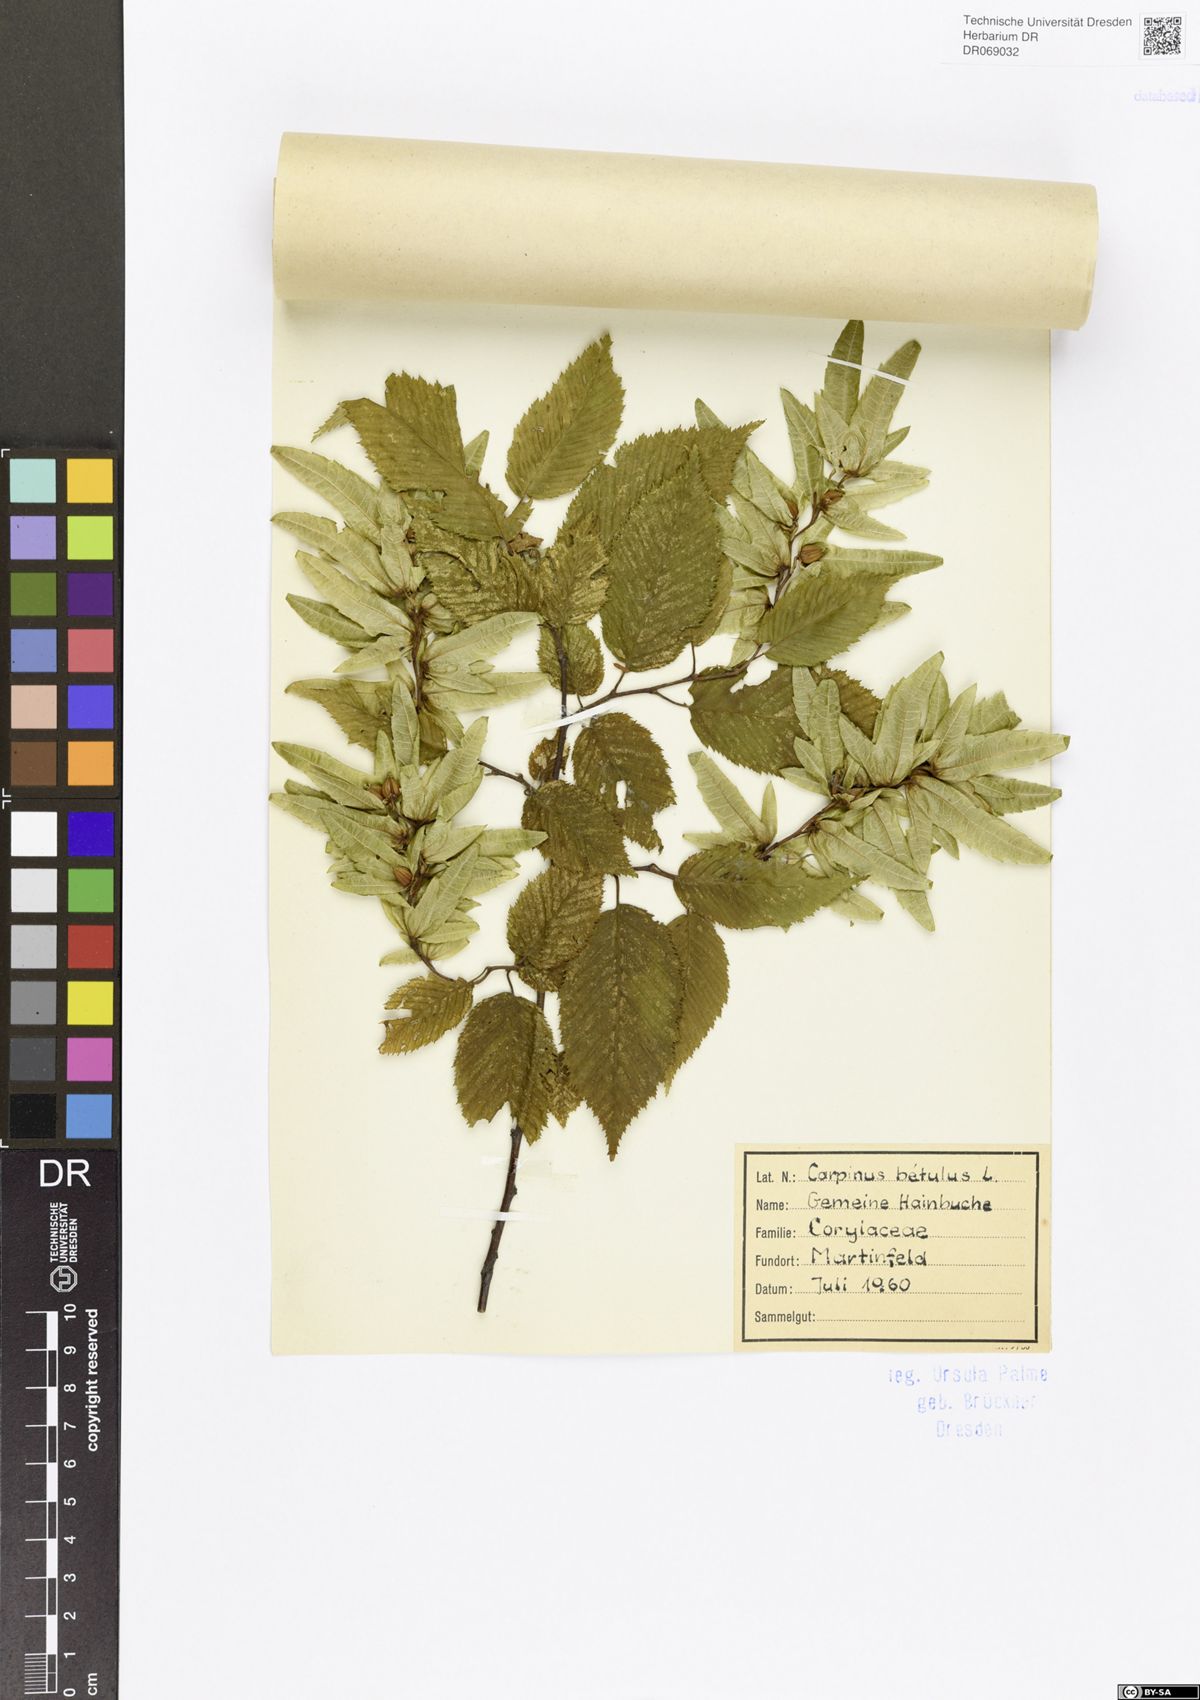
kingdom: Plantae
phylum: Tracheophyta
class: Magnoliopsida
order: Fagales
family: Betulaceae
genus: Carpinus
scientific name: Carpinus betulus
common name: Hornbeam
